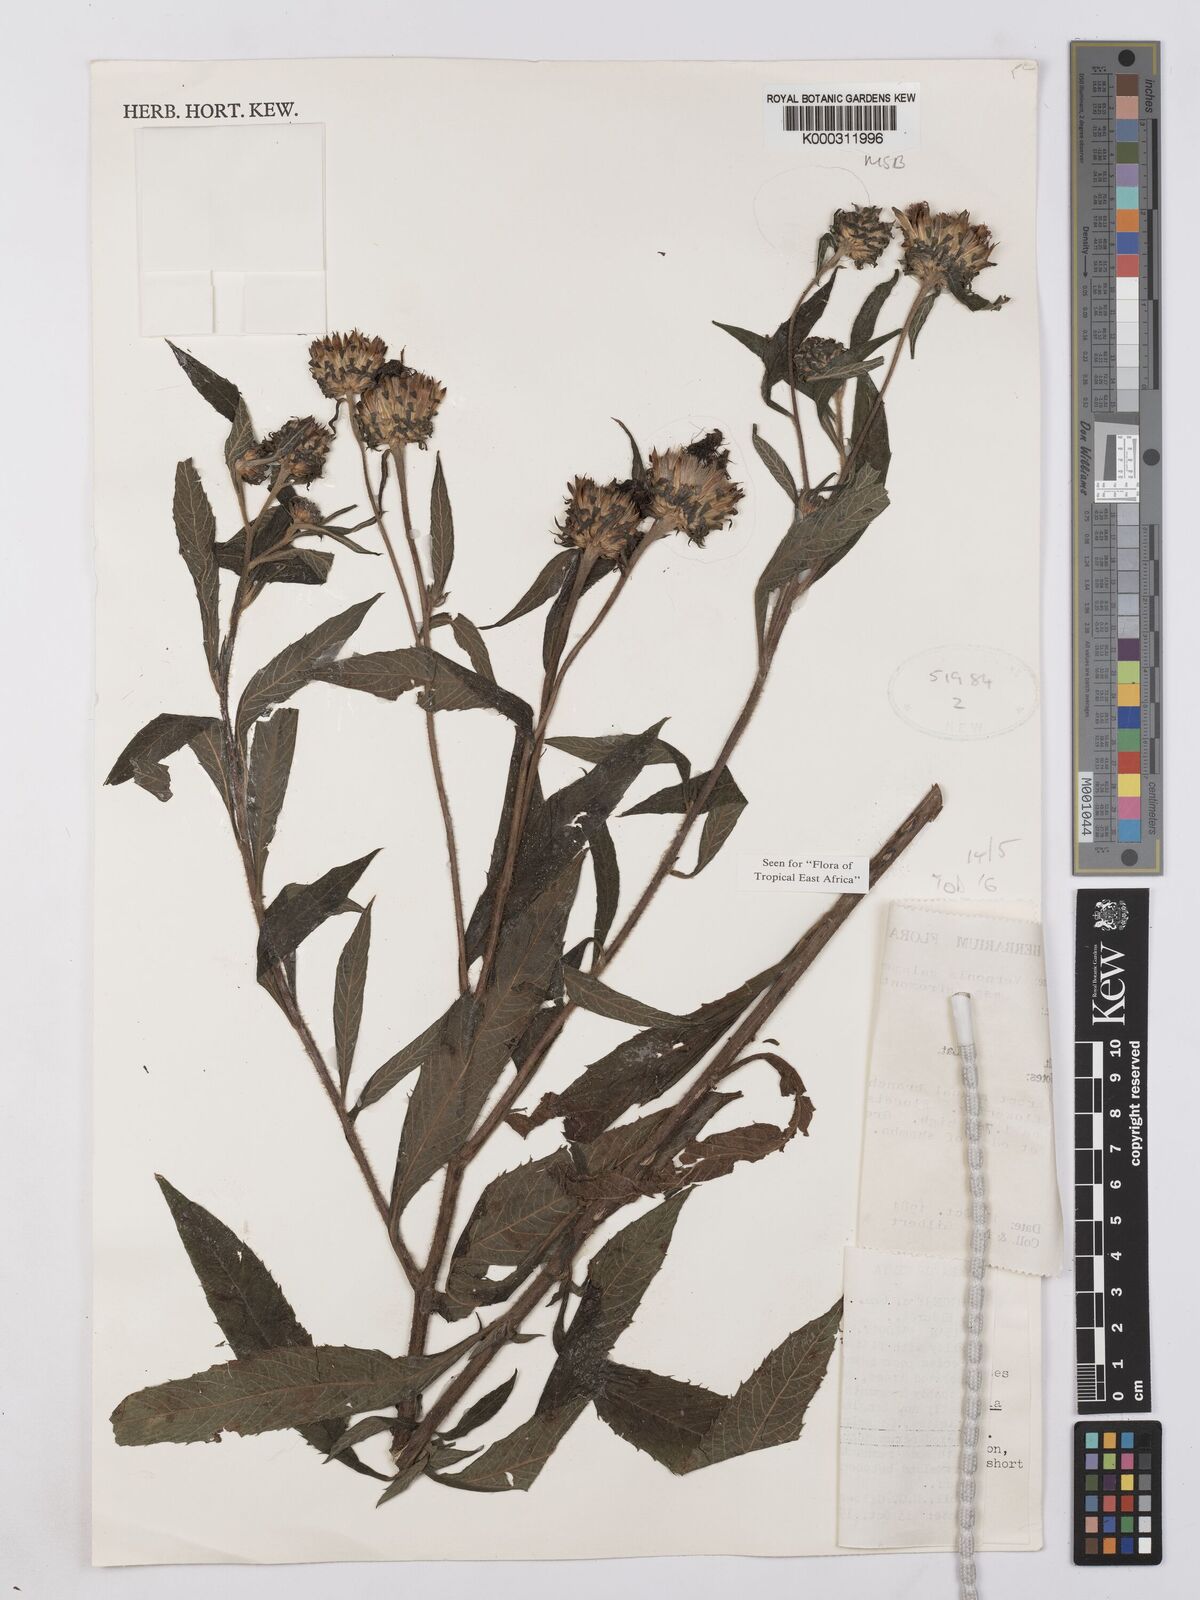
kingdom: Plantae
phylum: Tracheophyta
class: Magnoliopsida
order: Asterales
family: Asteraceae
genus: Vernonia
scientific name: Vernonia galamensis
